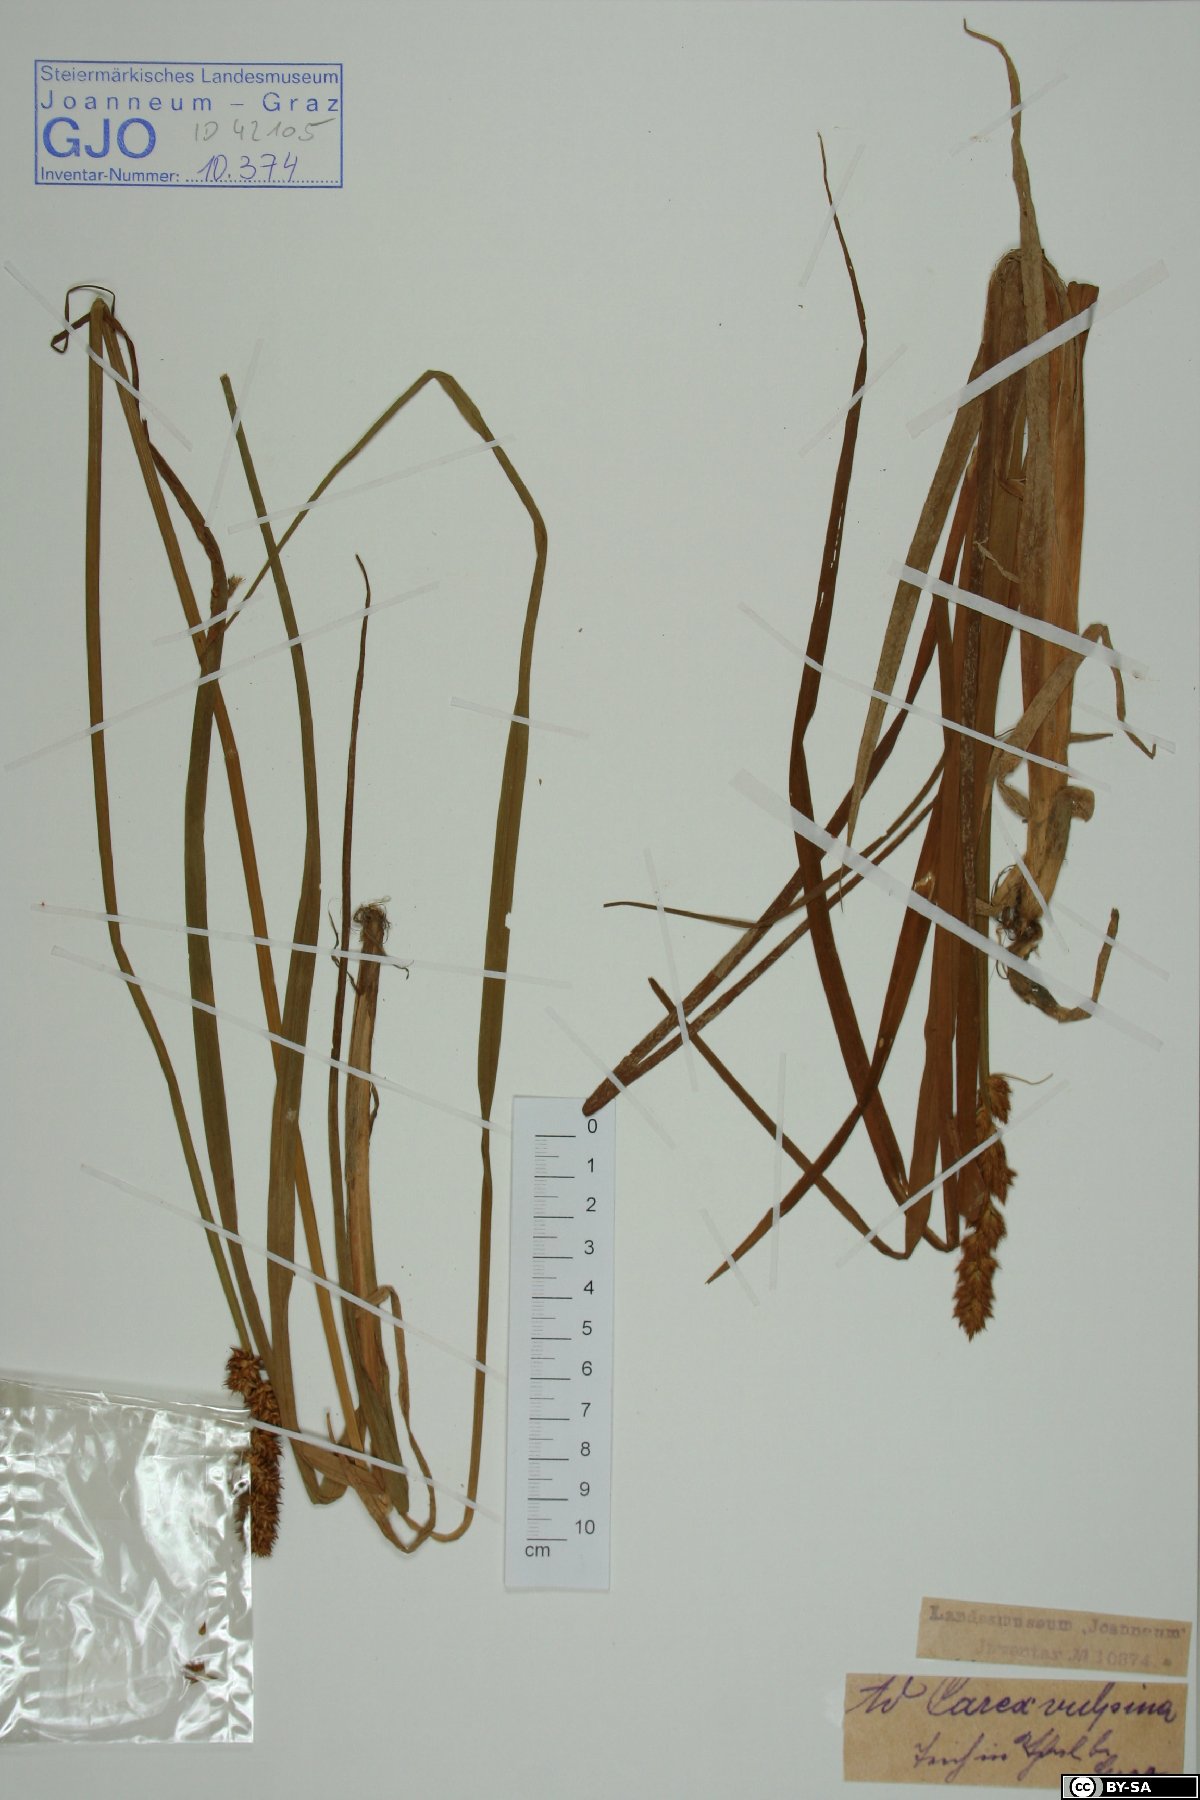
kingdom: Plantae
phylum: Tracheophyta
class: Liliopsida
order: Poales
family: Cyperaceae
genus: Carex
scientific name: Carex vulpina
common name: True fox-sedge
